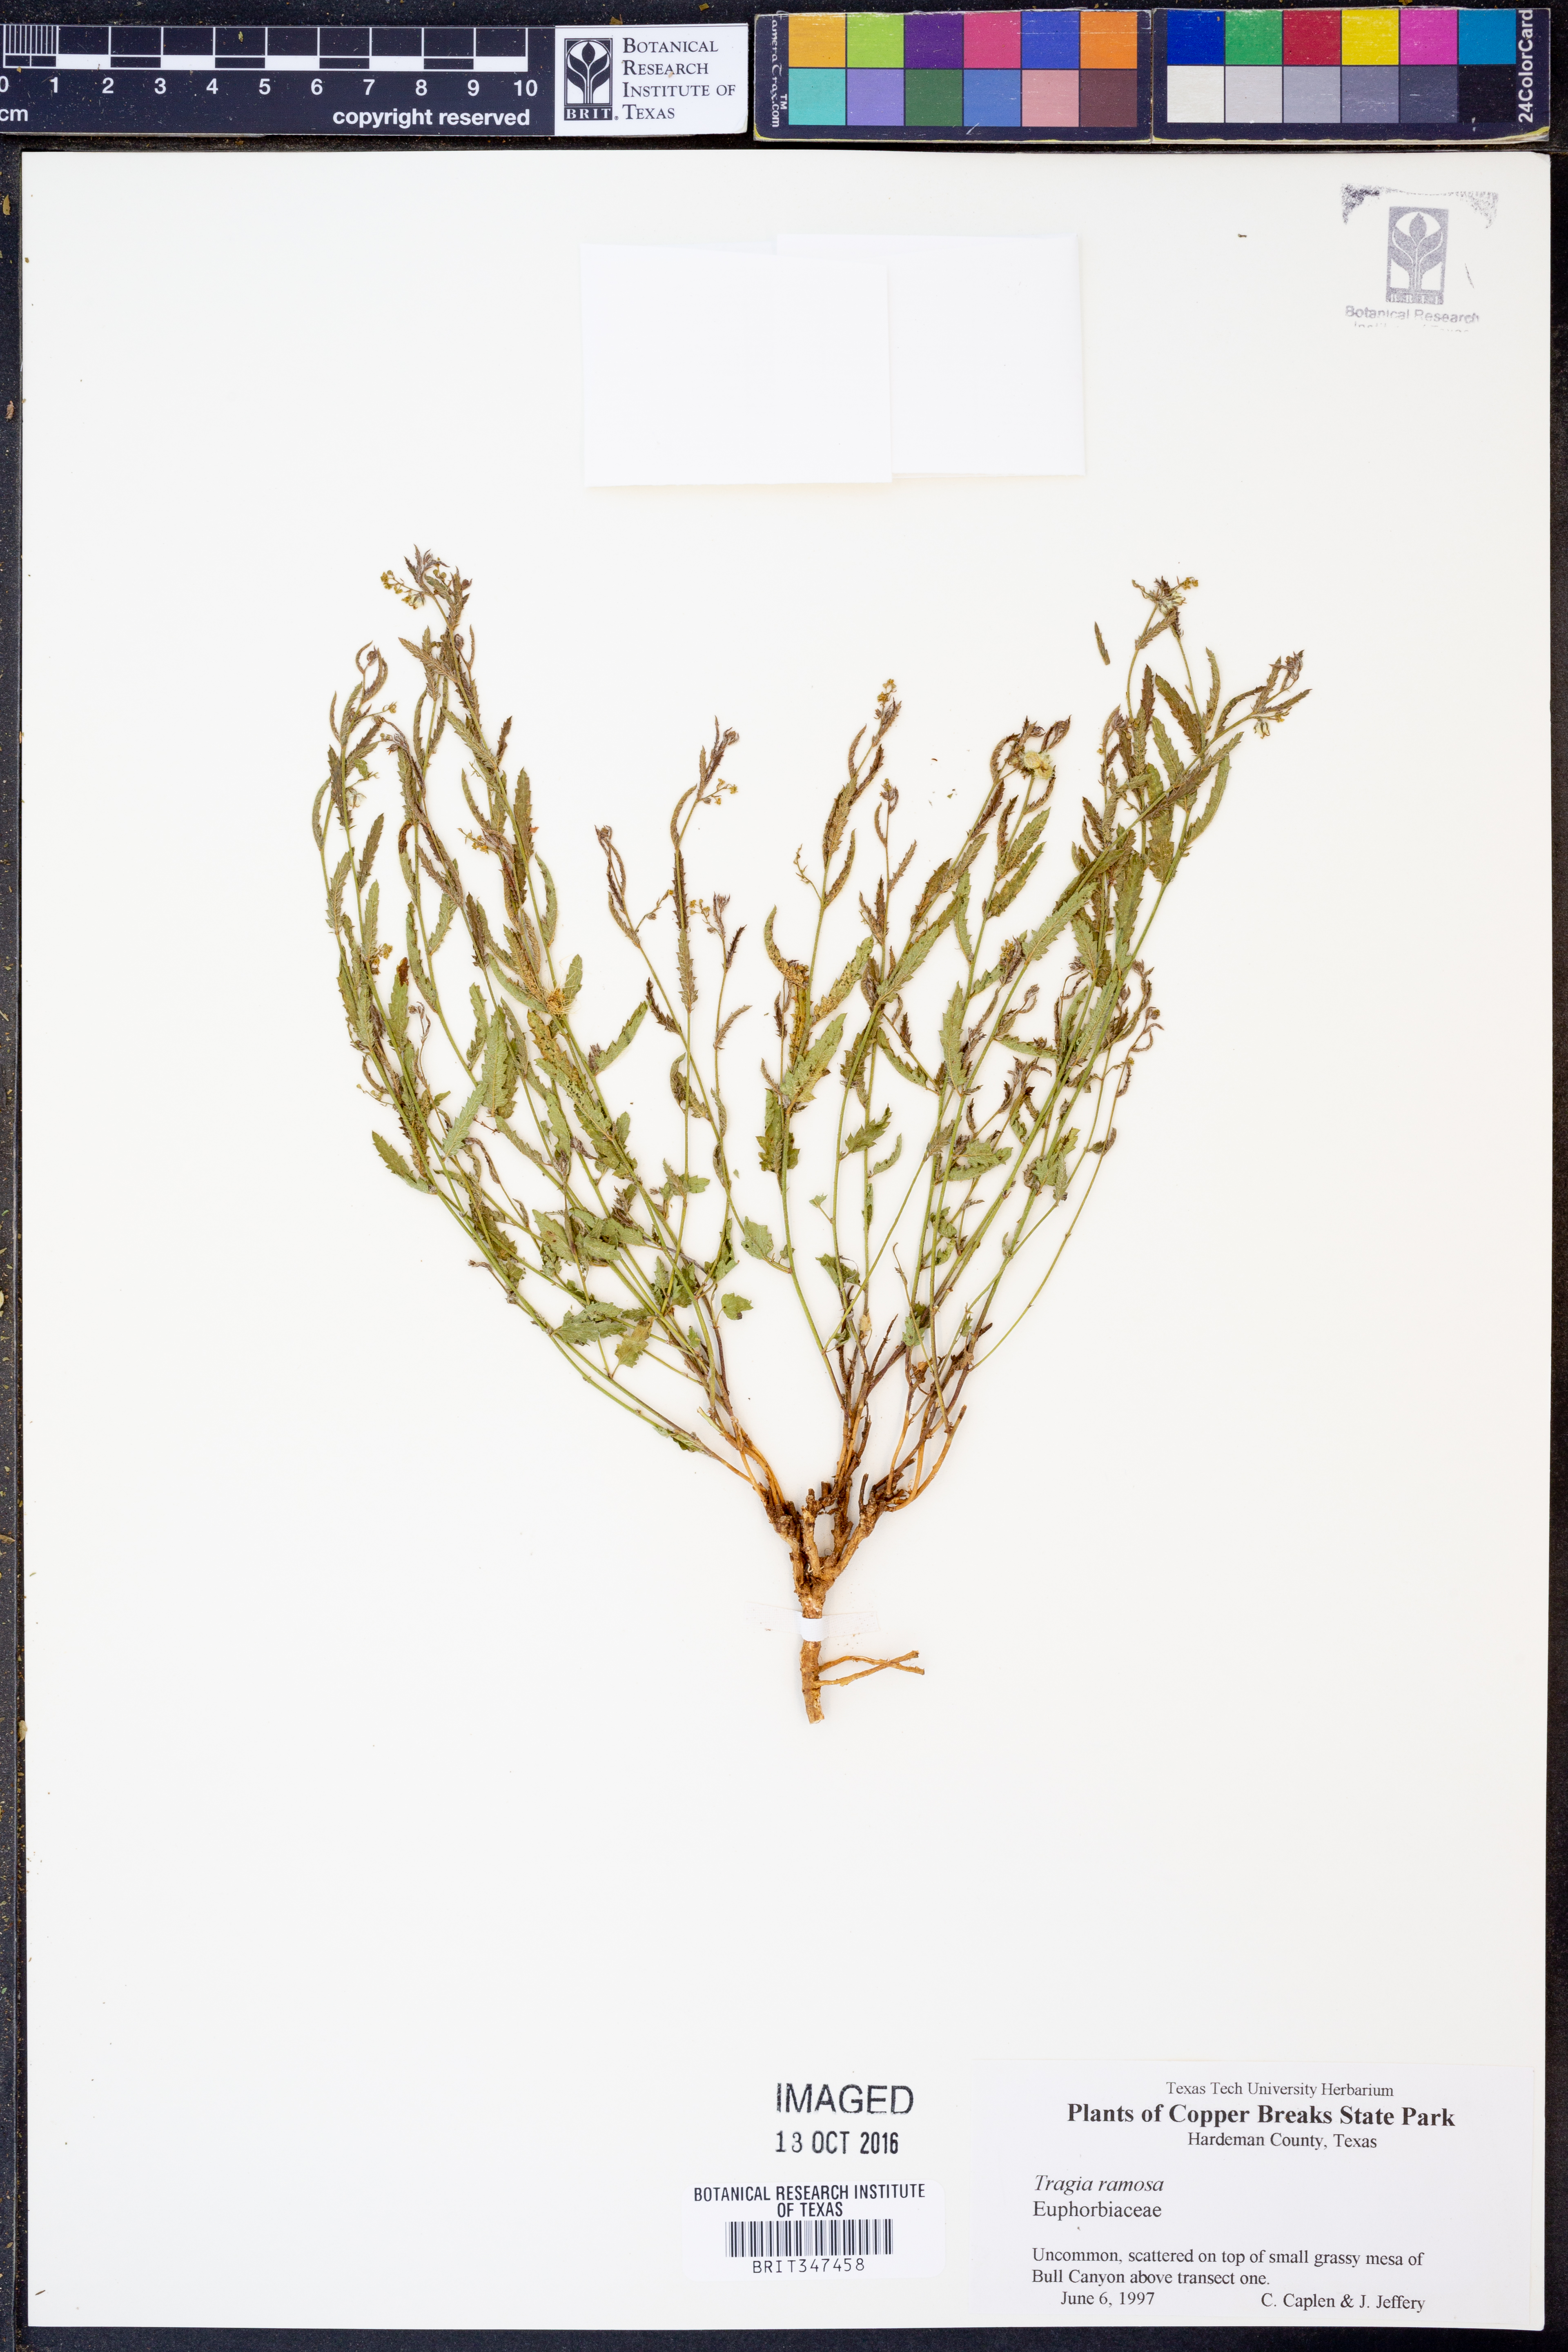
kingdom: Plantae
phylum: Tracheophyta
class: Magnoliopsida
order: Malpighiales
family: Euphorbiaceae
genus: Tragia
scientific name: Tragia ramosa
